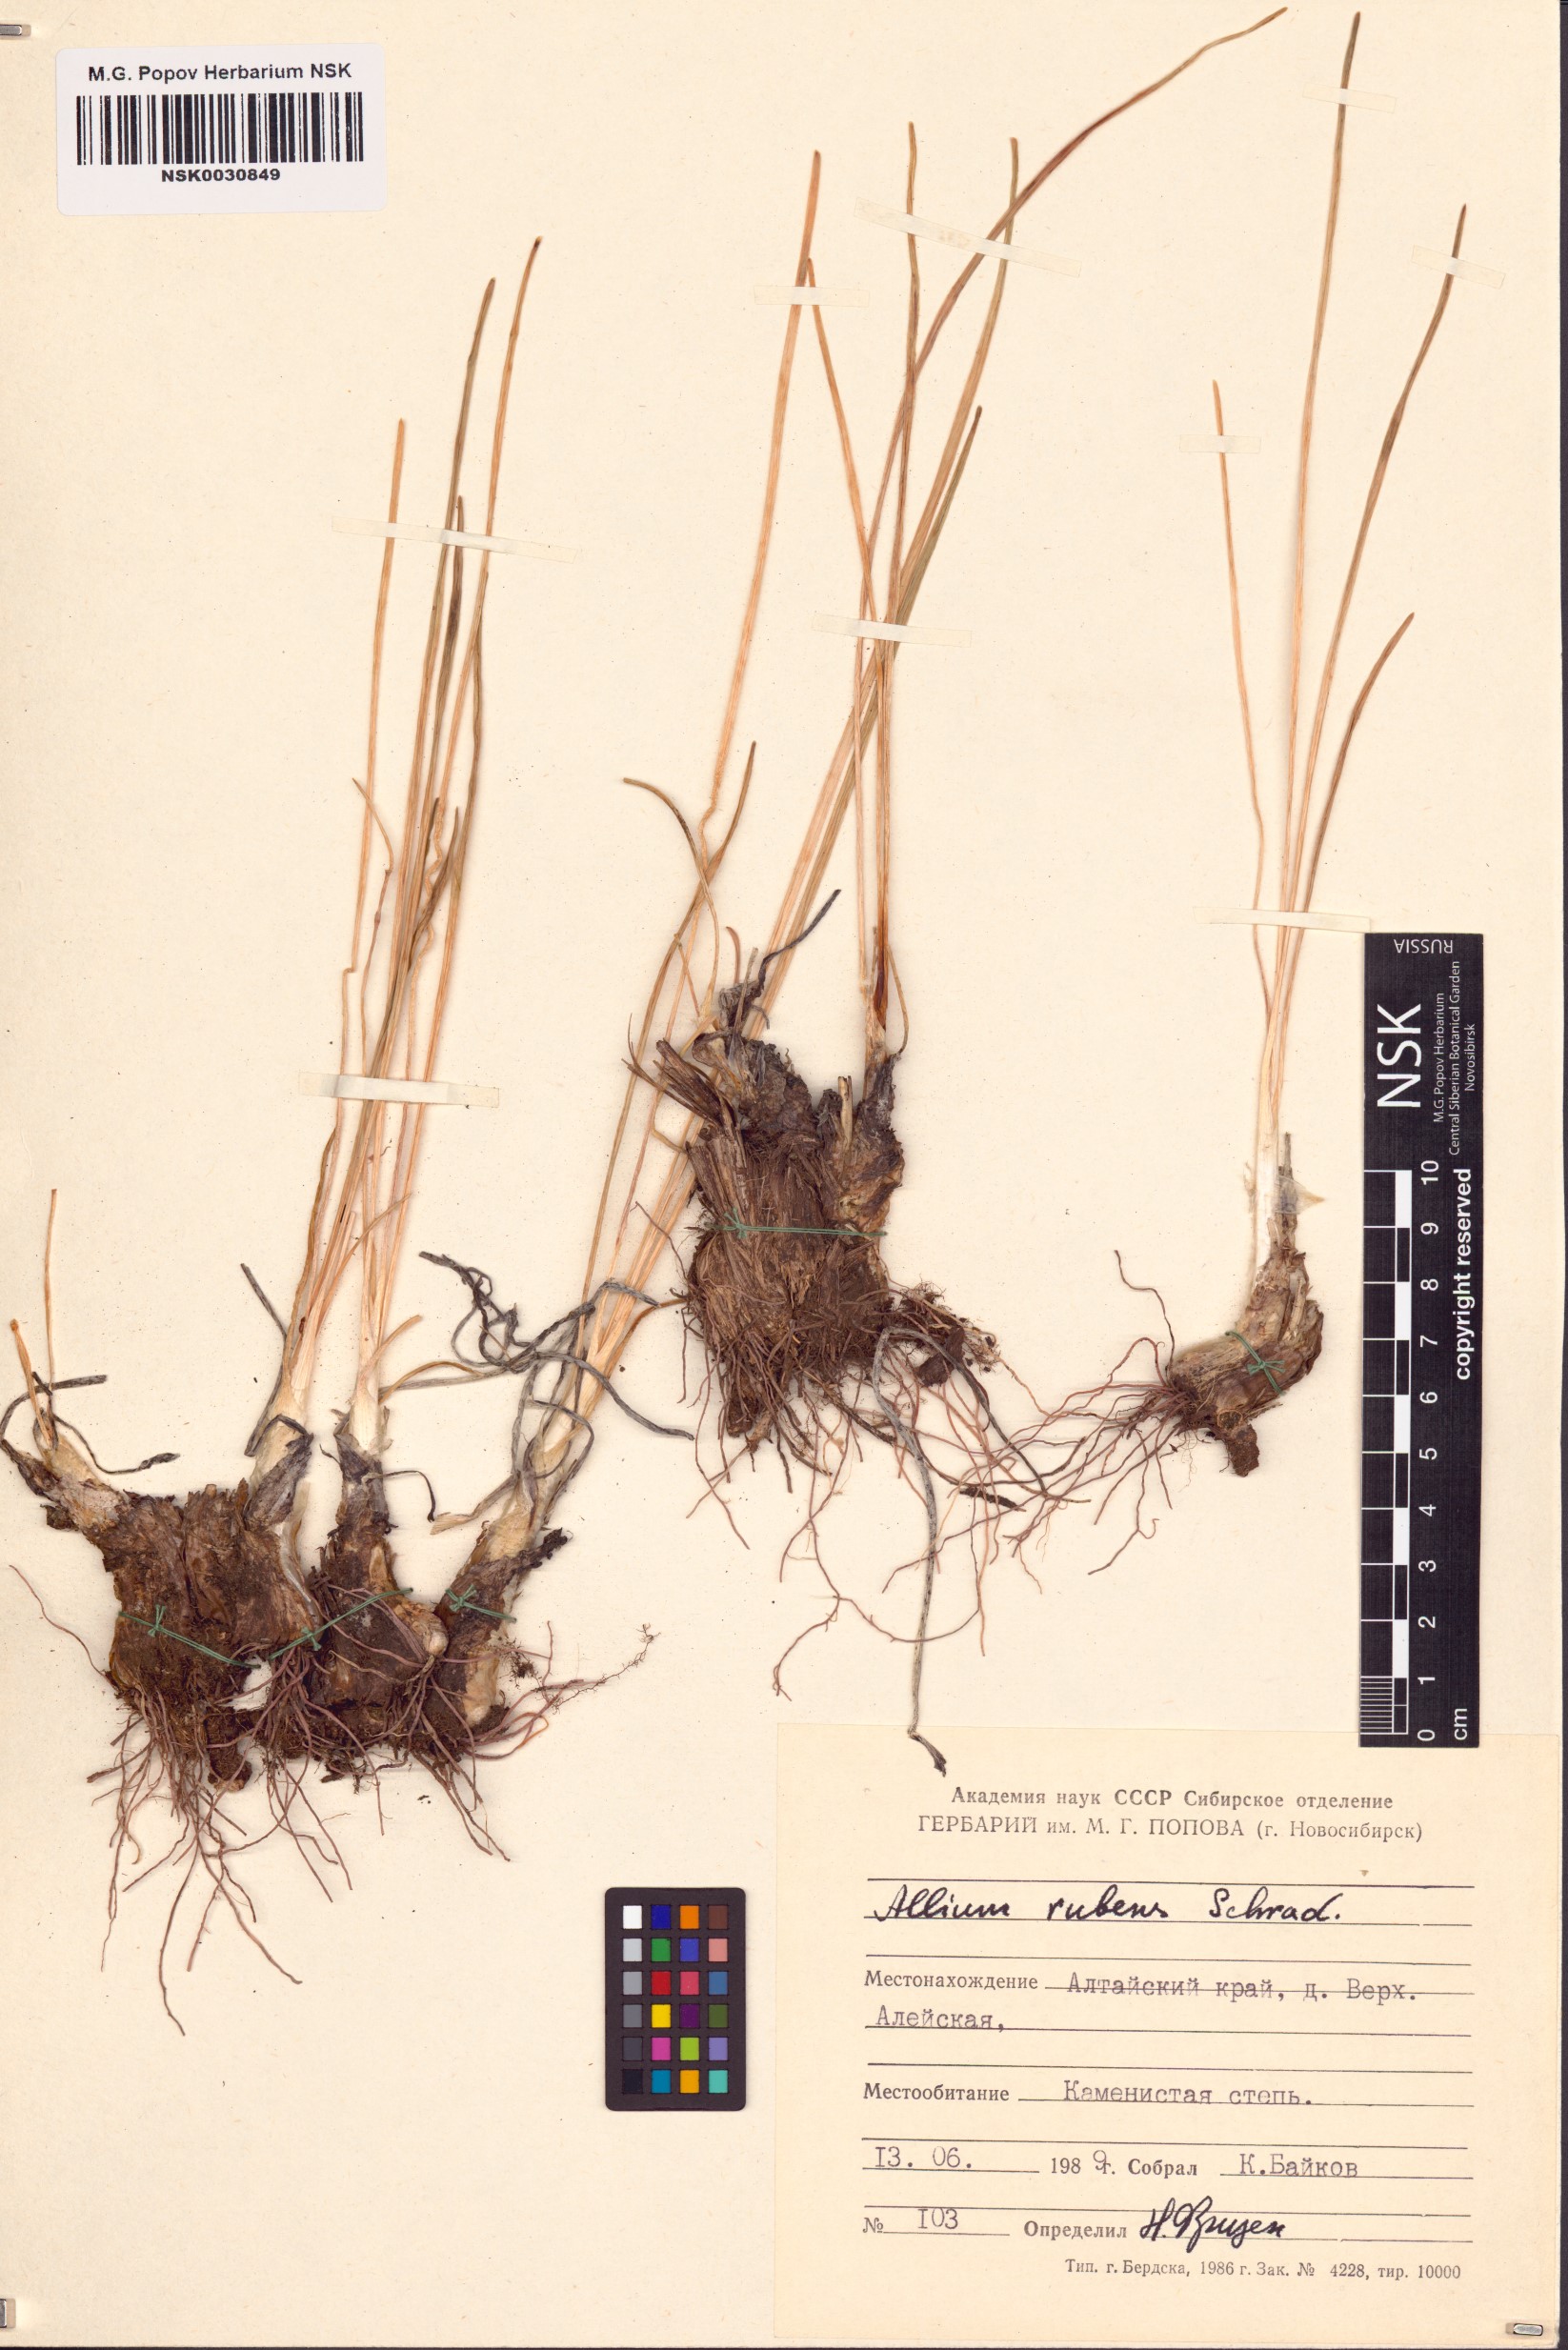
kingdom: Plantae
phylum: Tracheophyta
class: Liliopsida
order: Asparagales
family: Amaryllidaceae
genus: Allium
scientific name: Allium rubens
